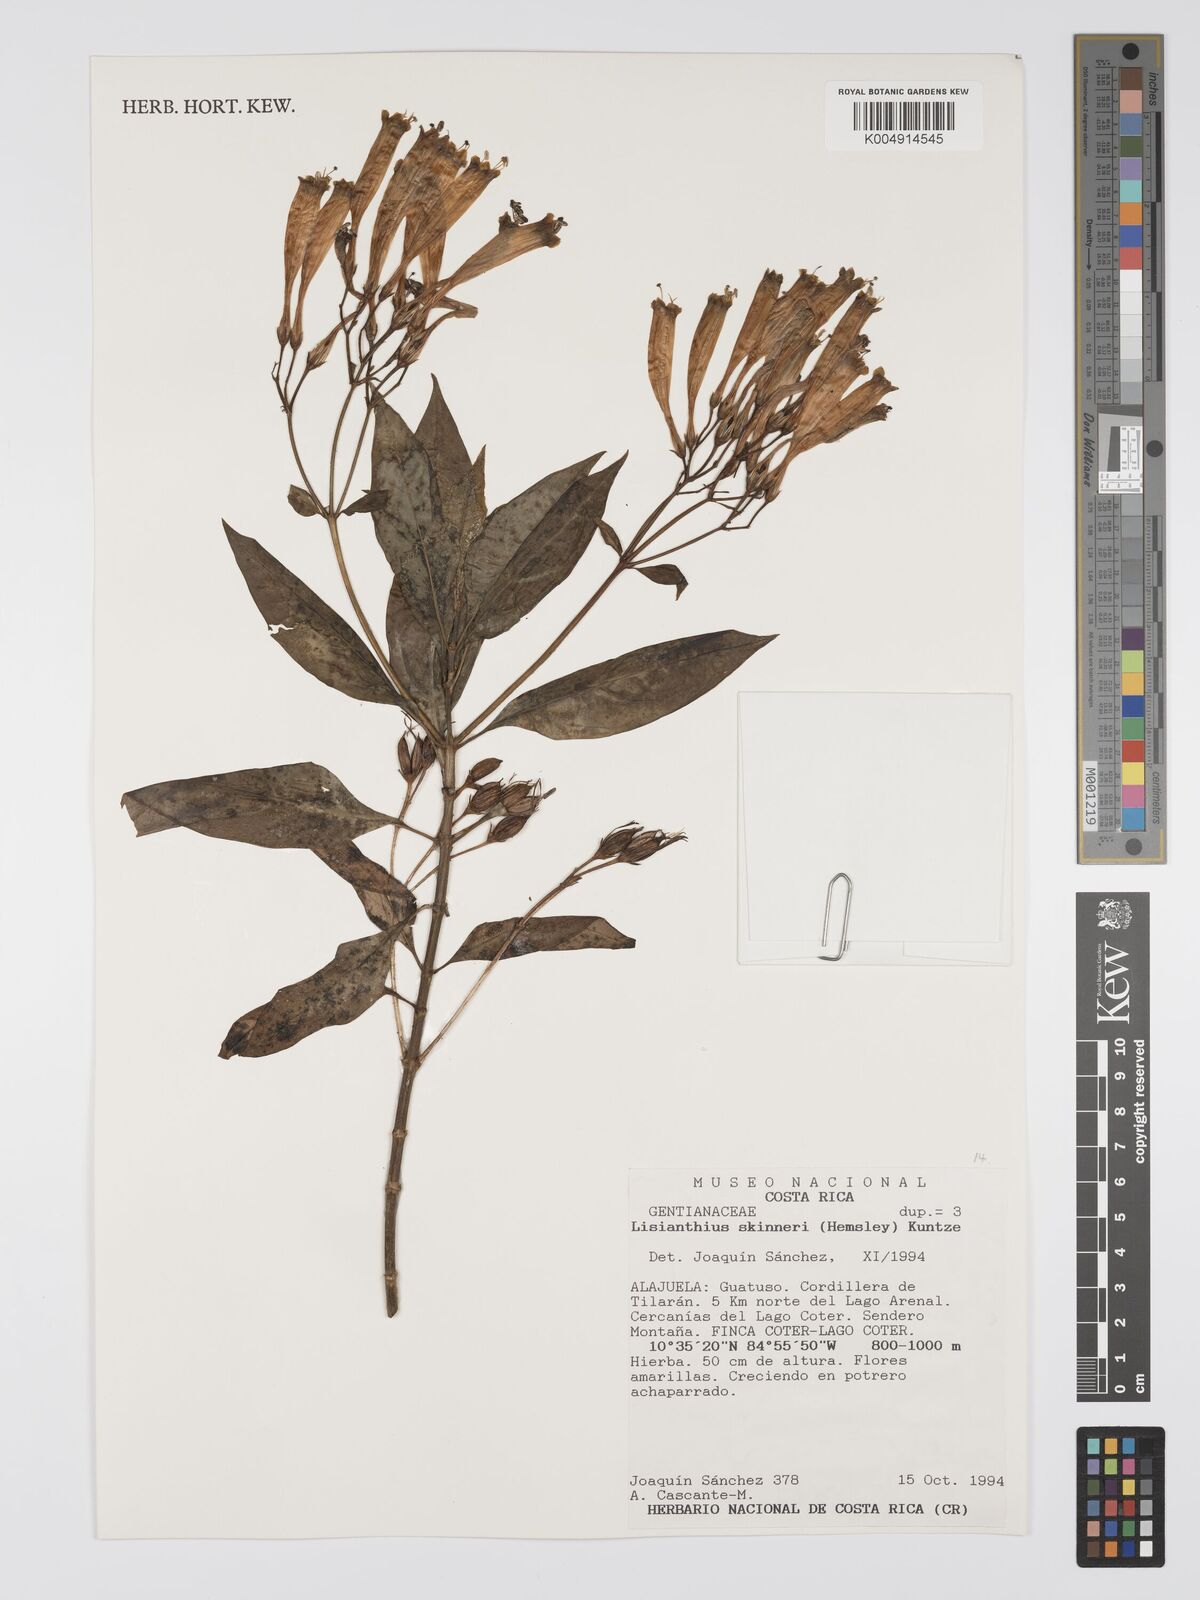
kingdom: Plantae
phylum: Tracheophyta
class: Magnoliopsida
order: Gentianales
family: Gentianaceae
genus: Lisianthus
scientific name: Lisianthus skinneri
